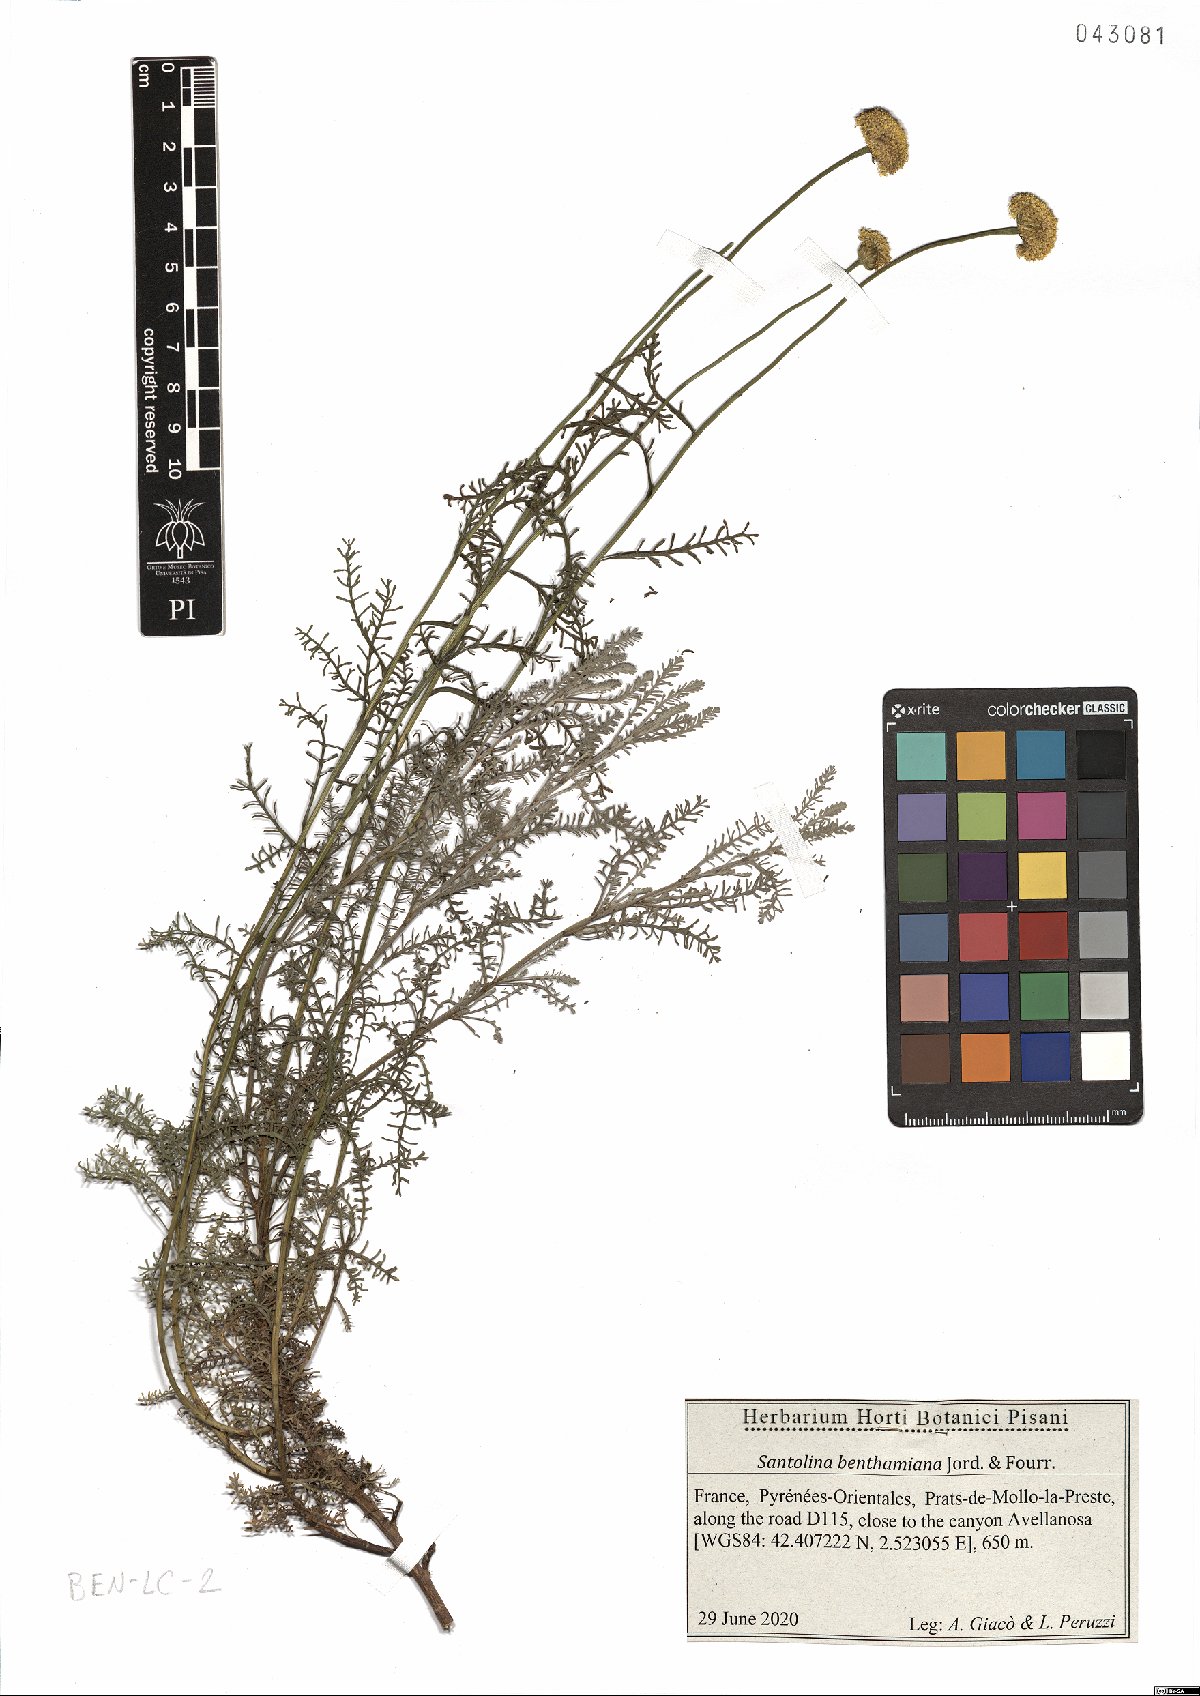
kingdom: Plantae
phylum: Tracheophyta
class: Magnoliopsida
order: Asterales
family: Asteraceae
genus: Santolina
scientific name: Santolina benthamiana
